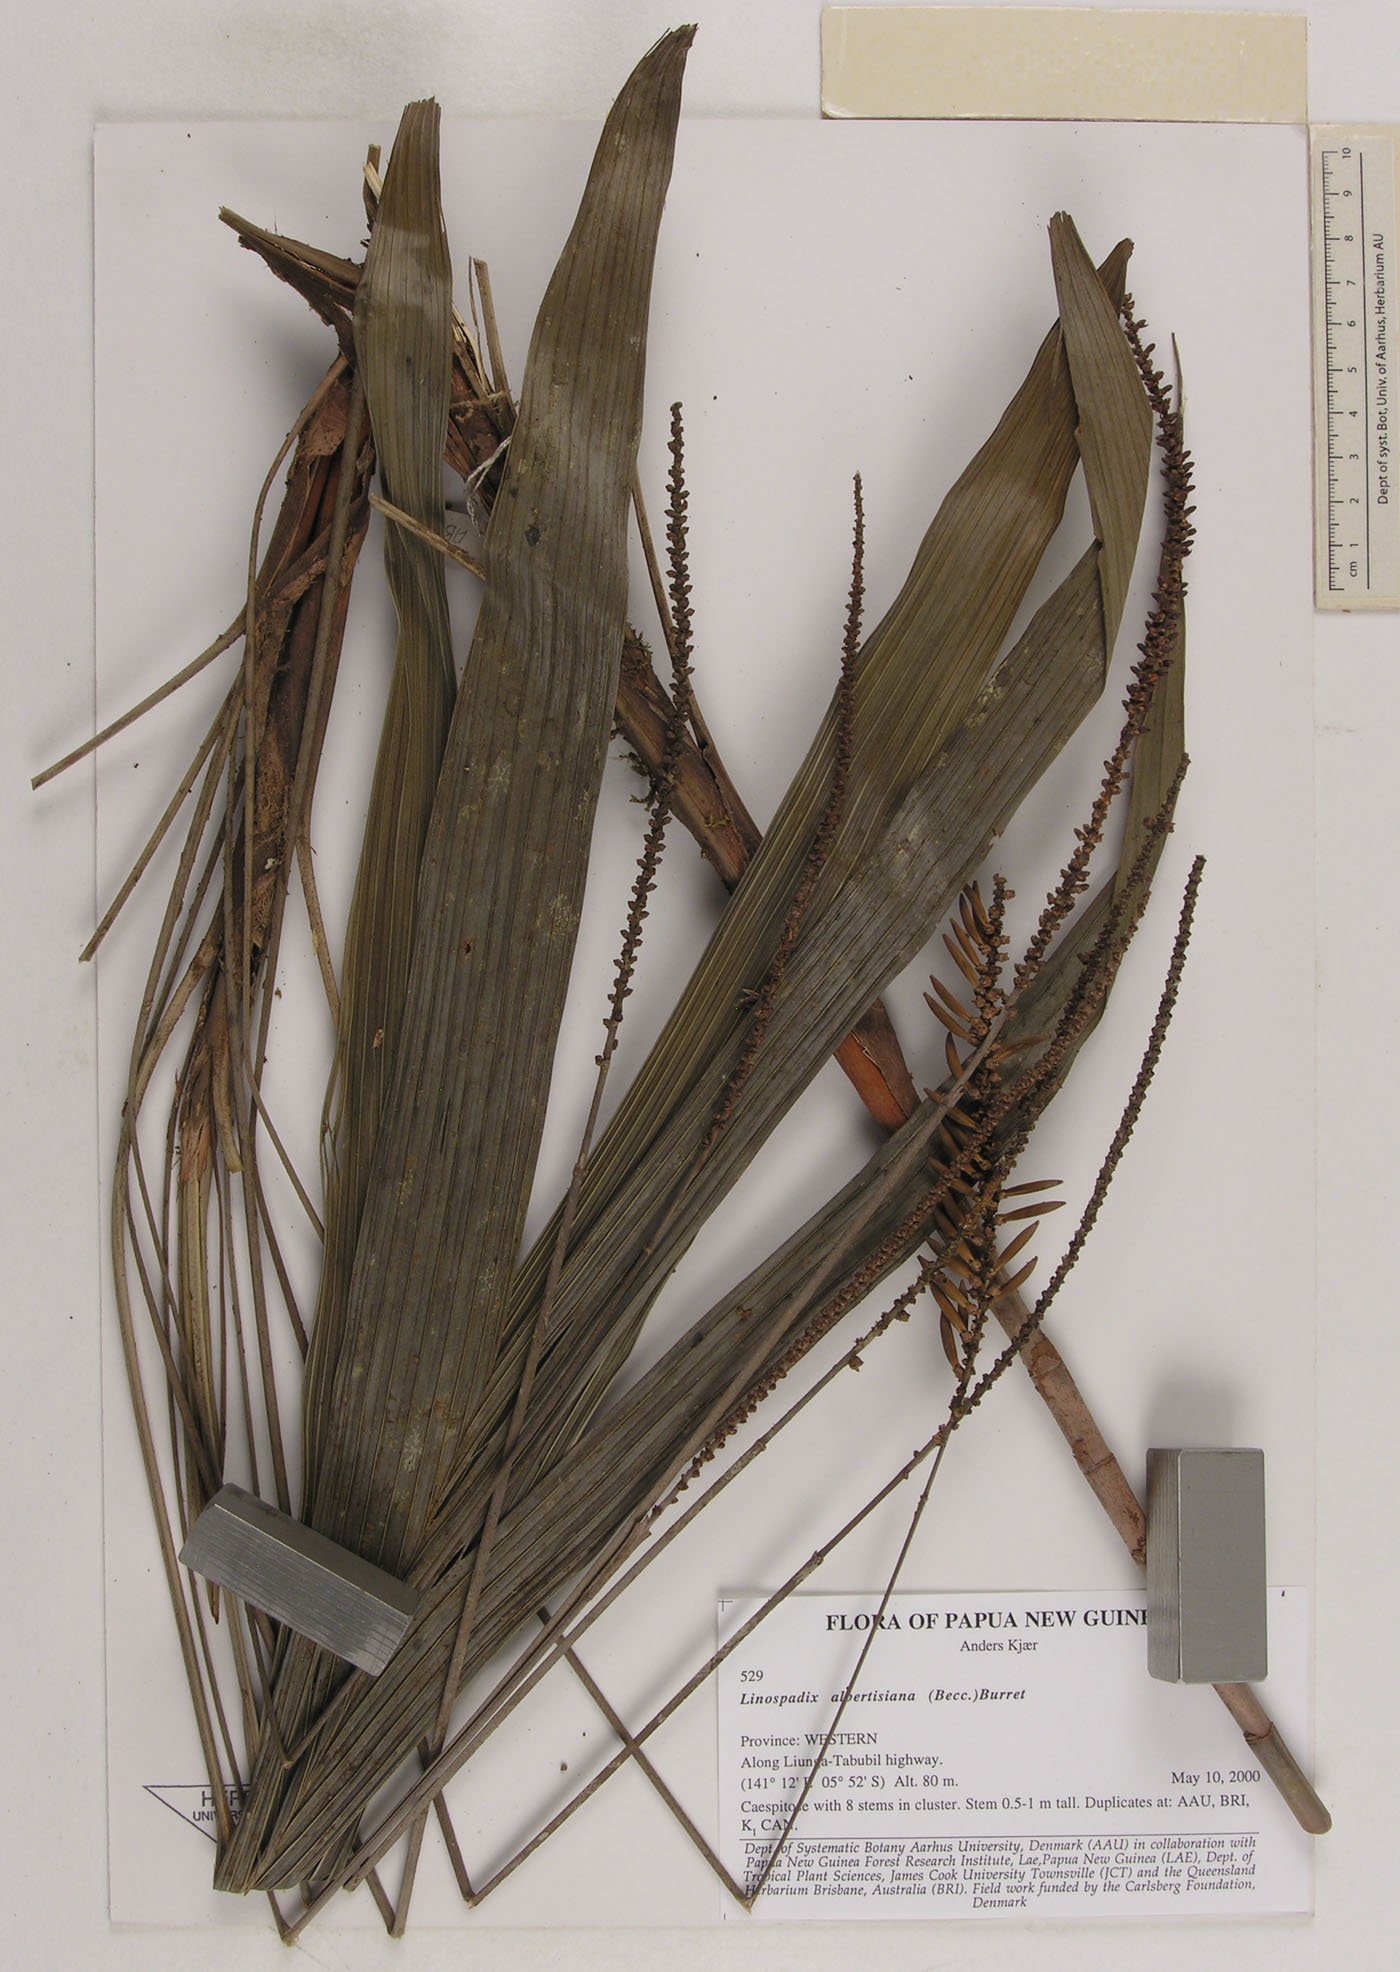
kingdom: Plantae
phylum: Tracheophyta
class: Liliopsida
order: Arecales
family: Arecaceae
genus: Linospadix
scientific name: Linospadix albertisianus
